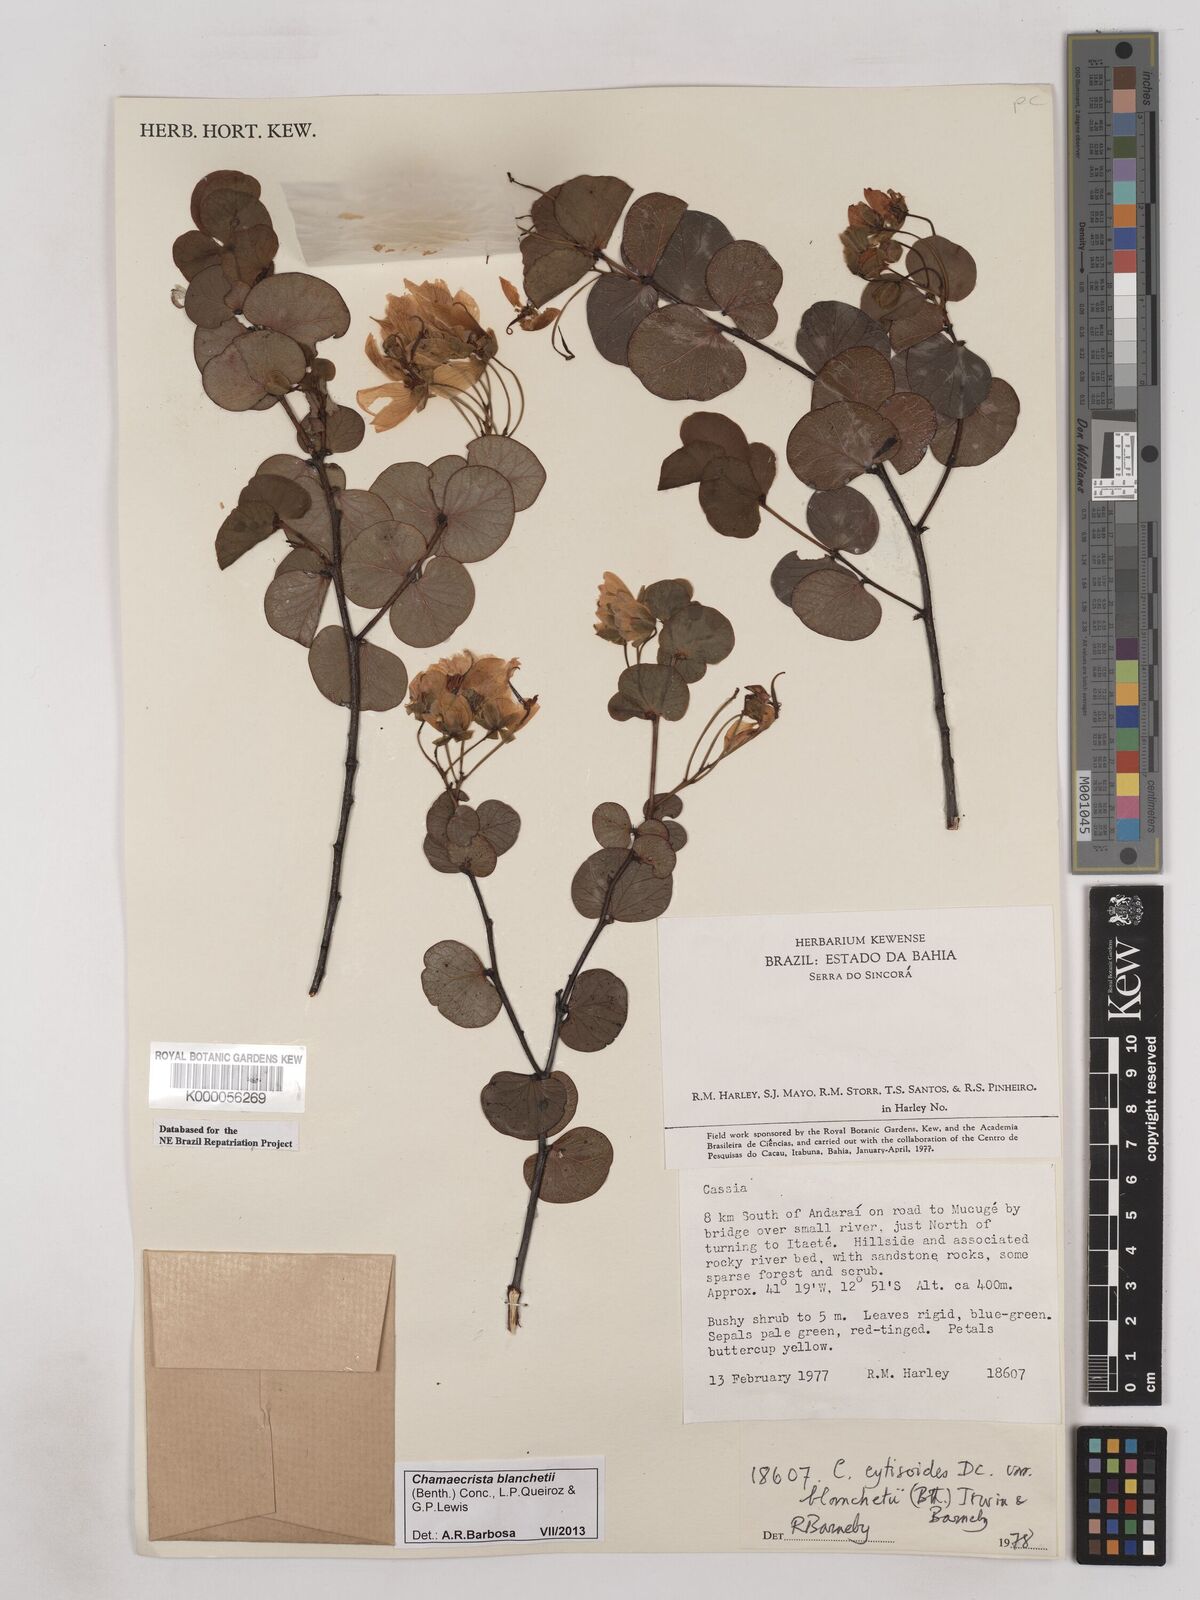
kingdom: Plantae
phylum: Tracheophyta
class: Magnoliopsida
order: Fabales
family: Fabaceae
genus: Chamaecrista
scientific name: Chamaecrista cytisoides
